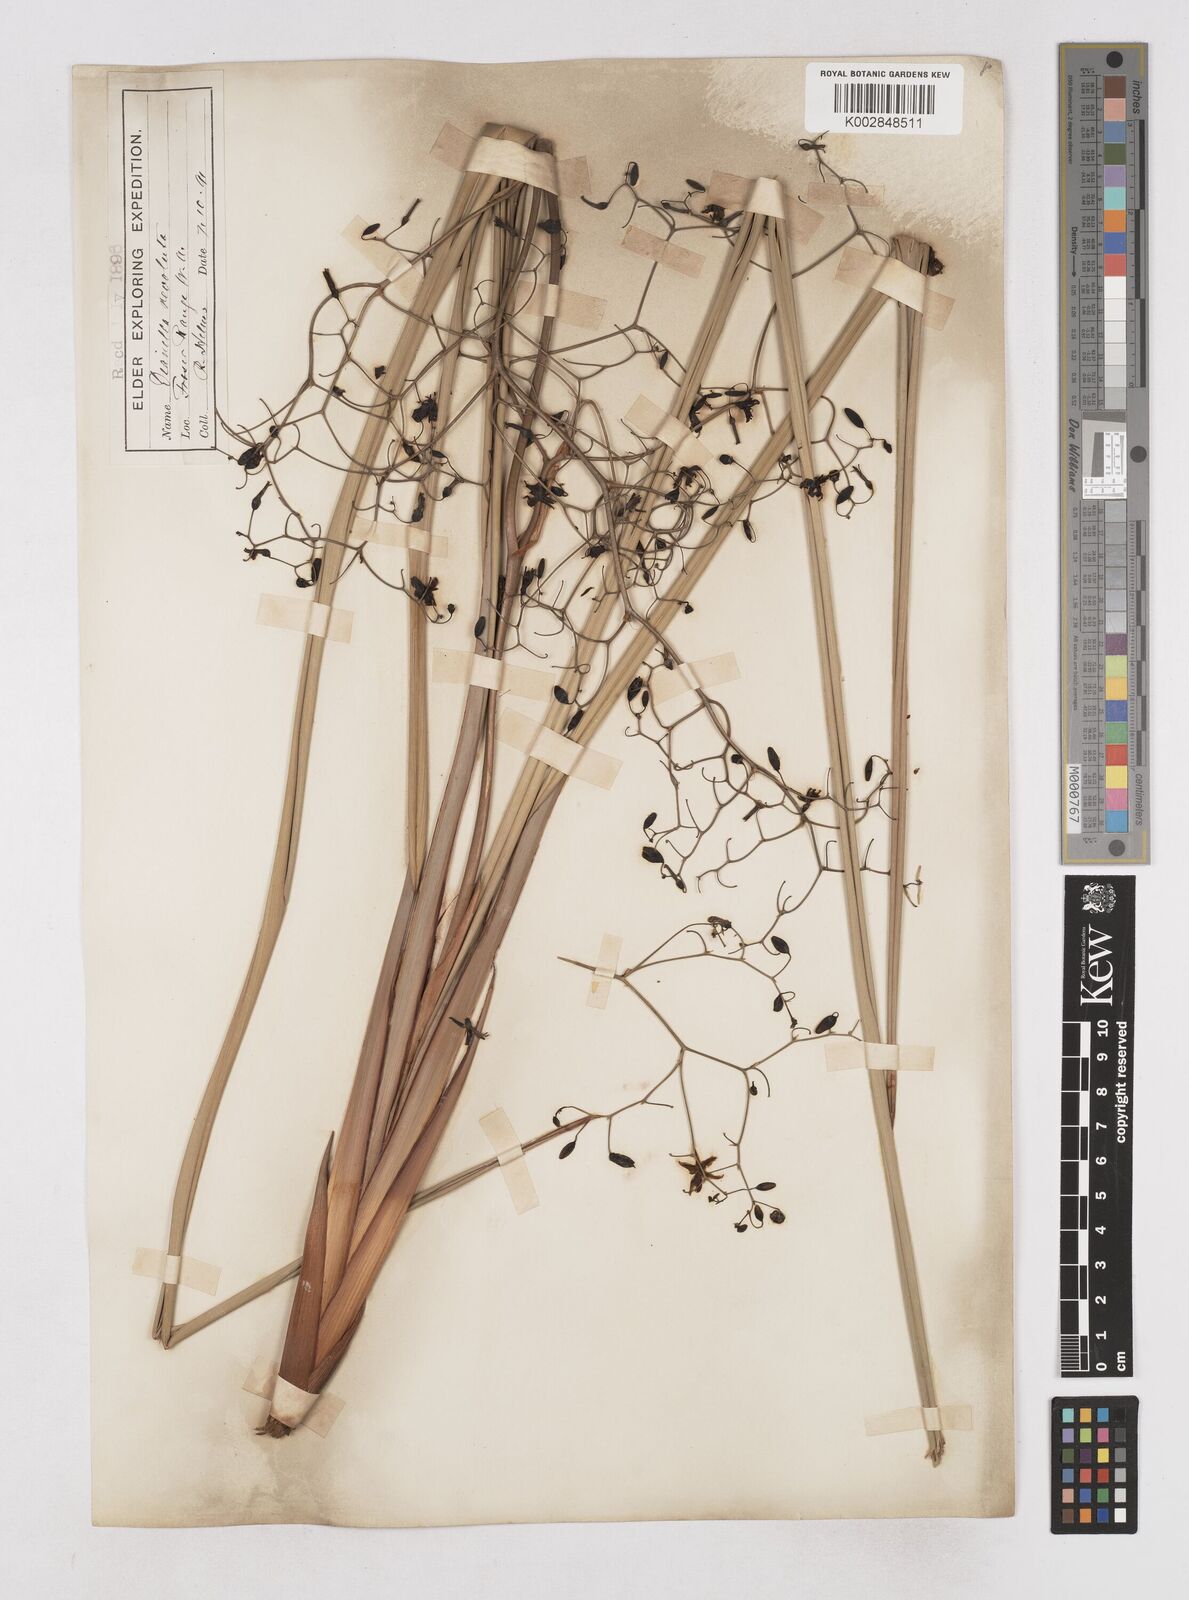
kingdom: Plantae
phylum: Tracheophyta
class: Liliopsida
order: Asparagales
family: Asphodelaceae
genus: Dianella
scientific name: Dianella revoluta
